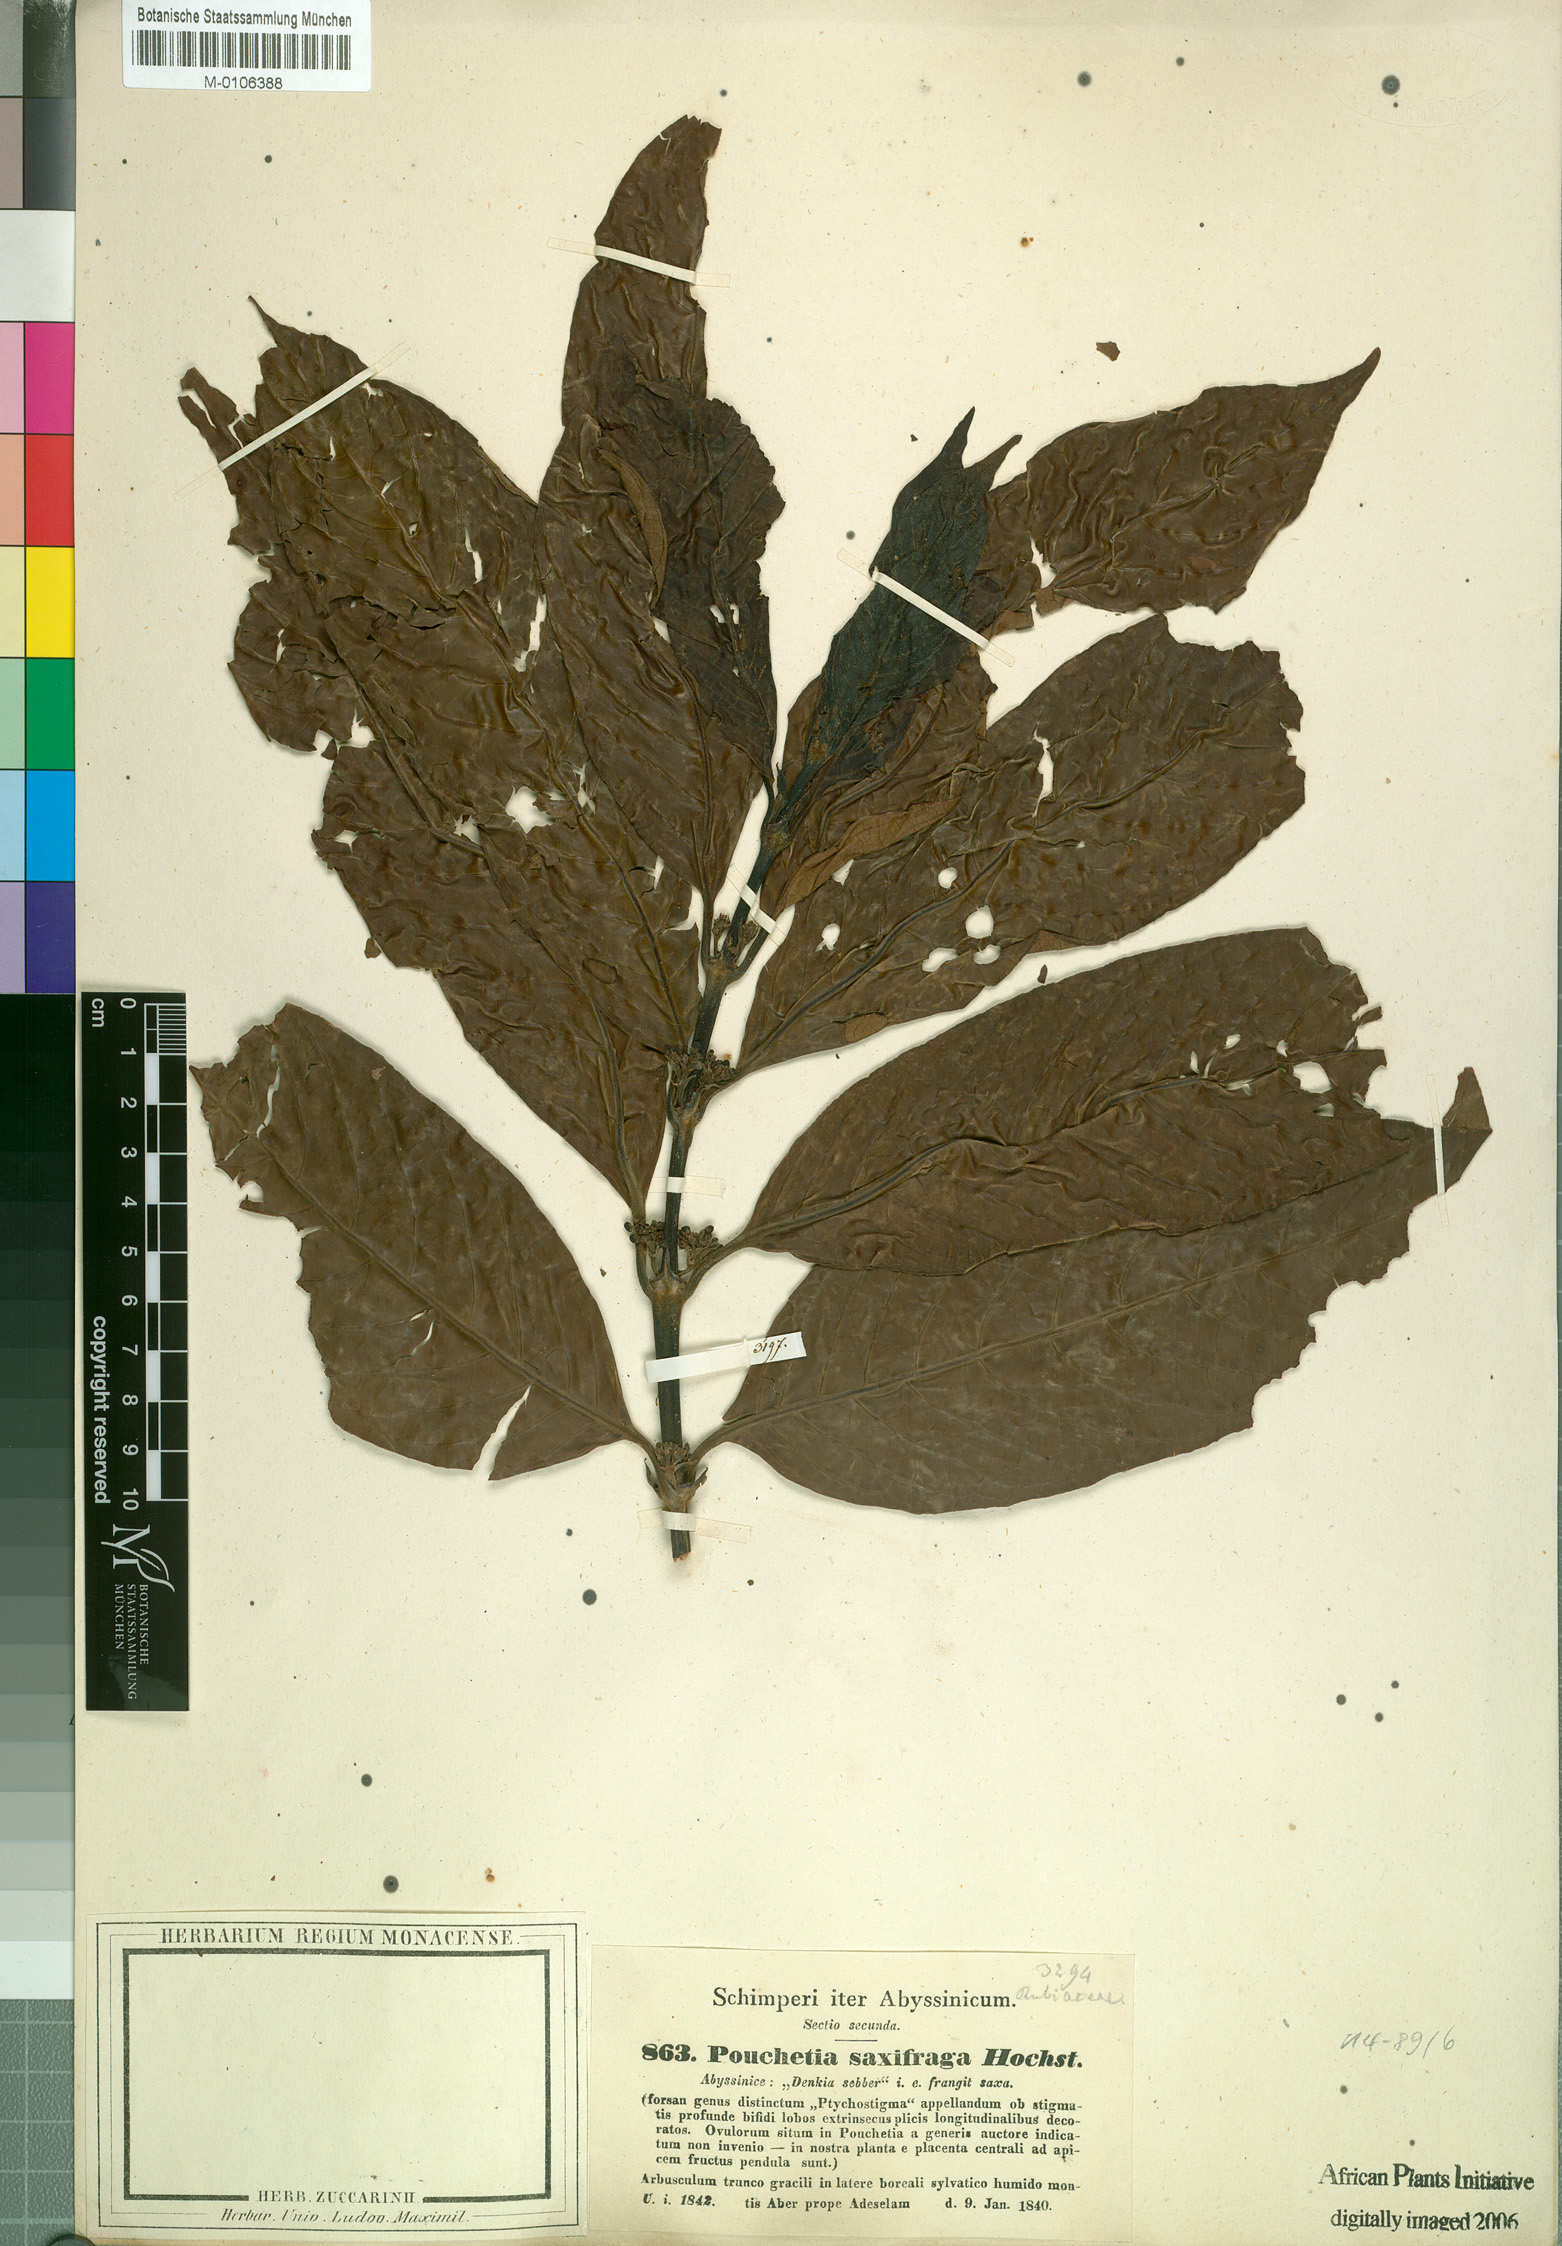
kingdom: Plantae
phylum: Tracheophyta
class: Magnoliopsida
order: Gentianales
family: Rubiaceae
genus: Pouchetia
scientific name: Pouchetia saxifraga
